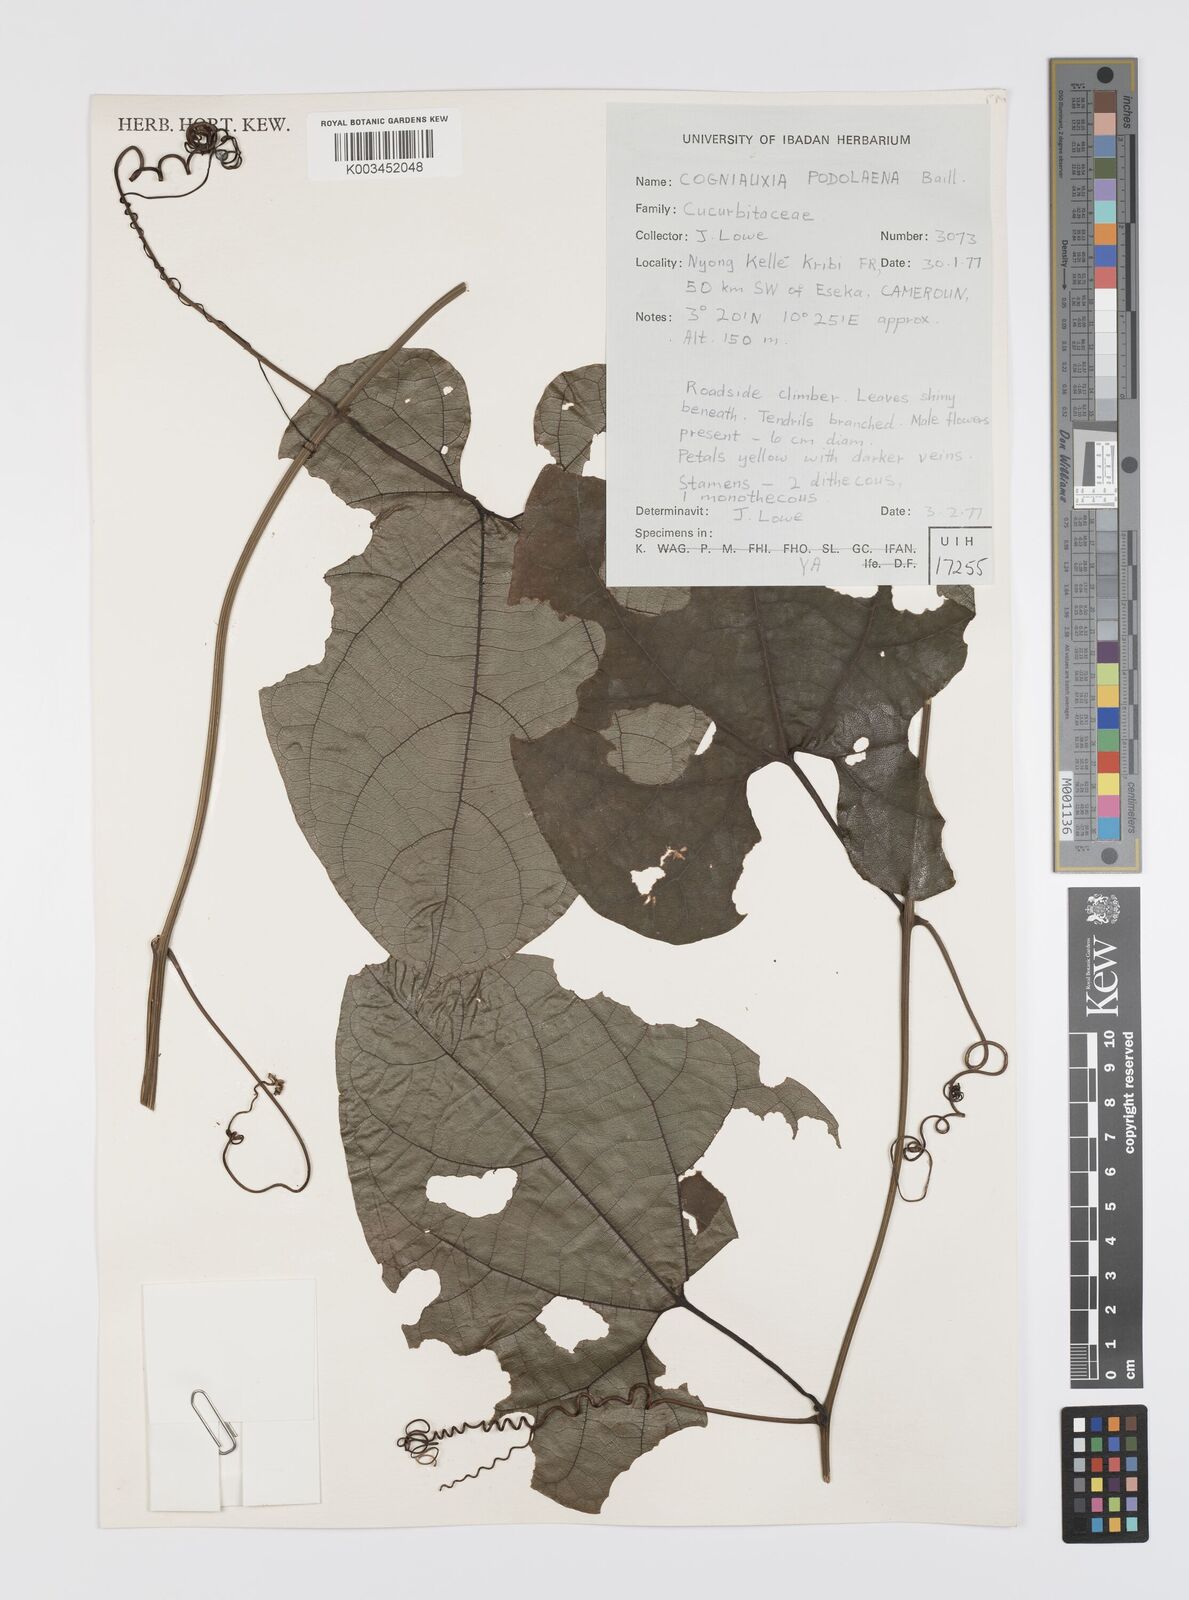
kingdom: Plantae
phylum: Tracheophyta
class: Magnoliopsida
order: Cucurbitales
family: Cucurbitaceae
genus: Cogniauxia
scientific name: Cogniauxia podolaena
